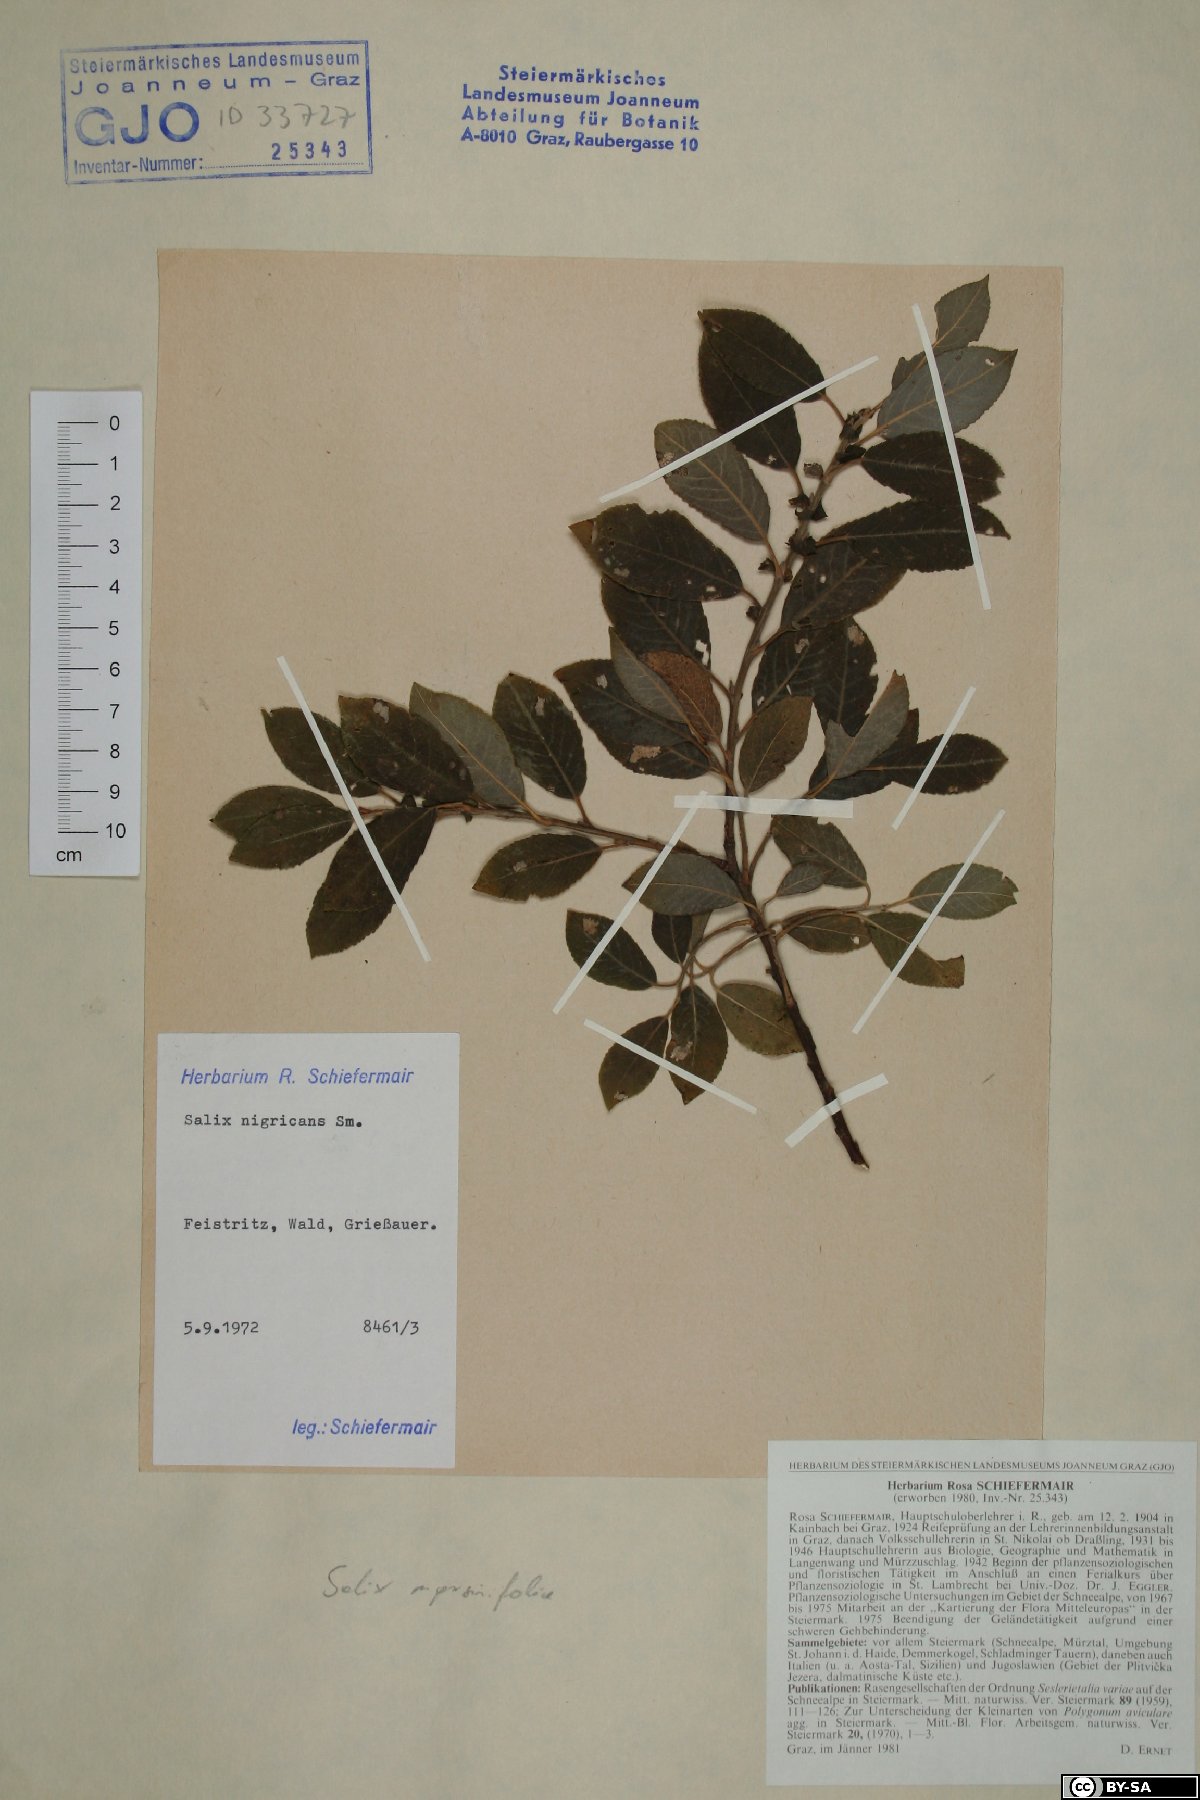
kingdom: Plantae
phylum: Tracheophyta
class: Magnoliopsida
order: Malpighiales
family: Salicaceae
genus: Salix
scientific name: Salix myrsinifolia
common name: Dark-leaved willow
